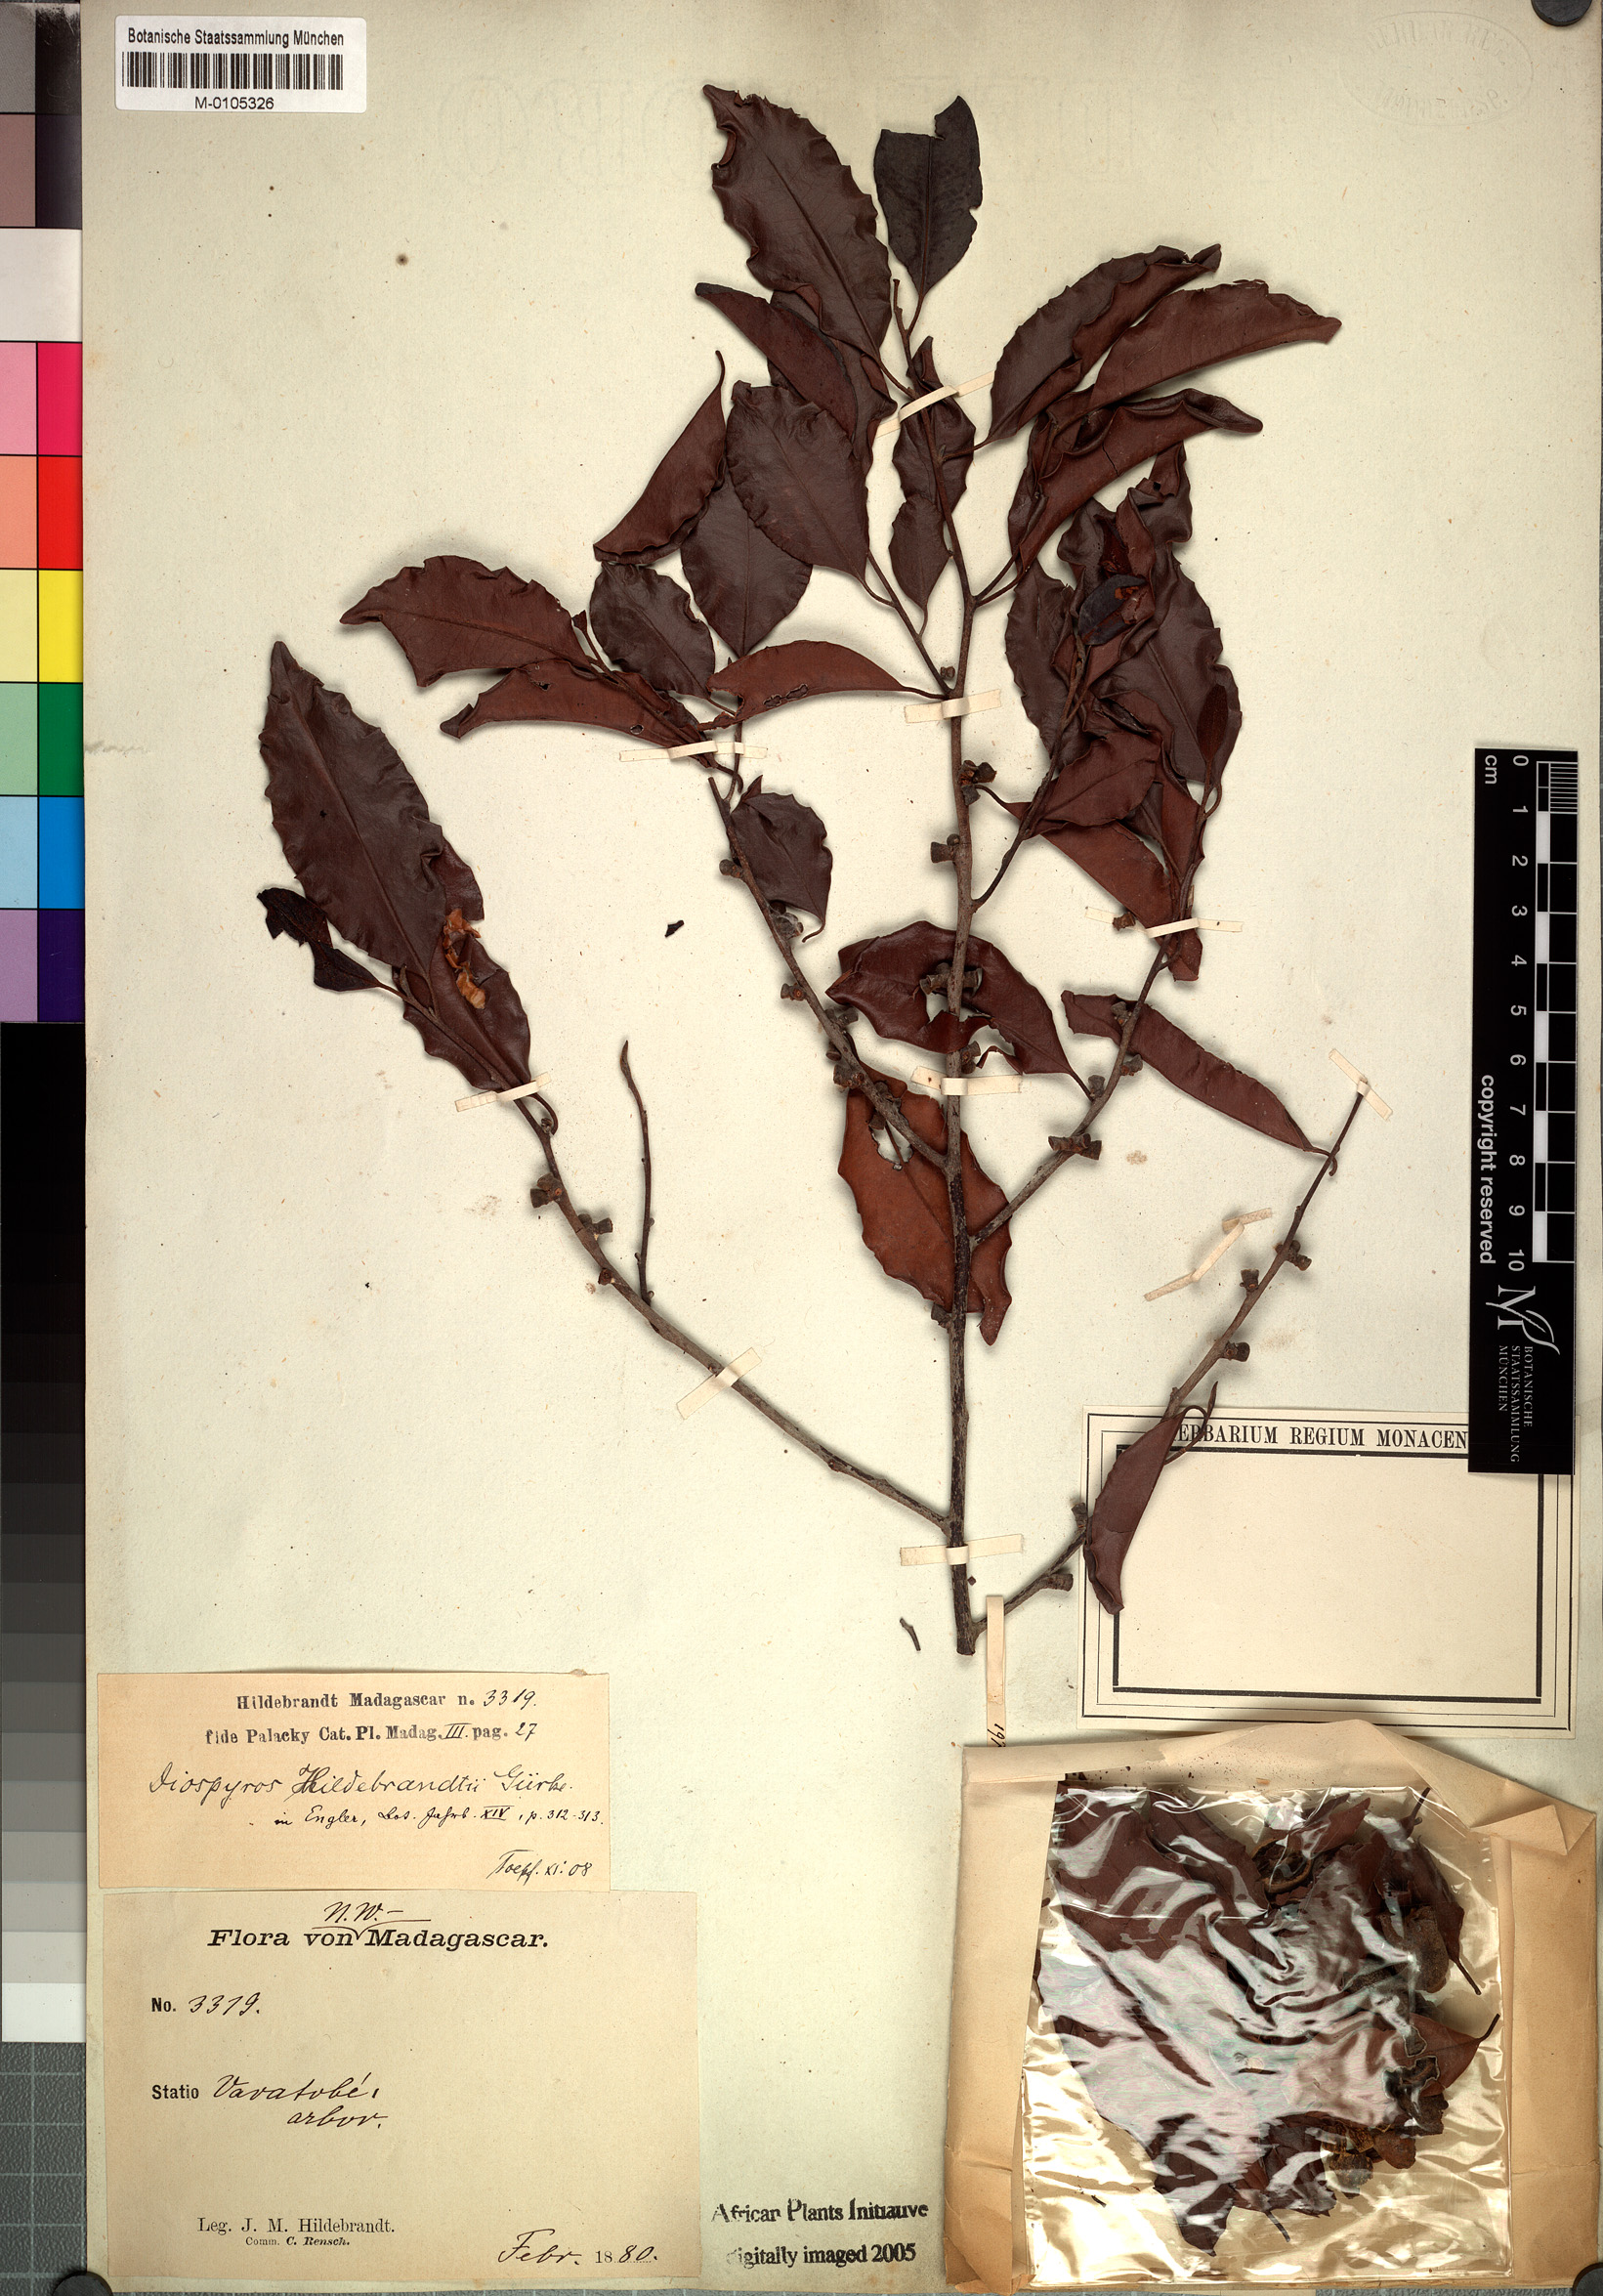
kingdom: Plantae
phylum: Tracheophyta
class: Magnoliopsida
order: Ericales
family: Ebenaceae
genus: Diospyros
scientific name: Diospyros bernieriana
